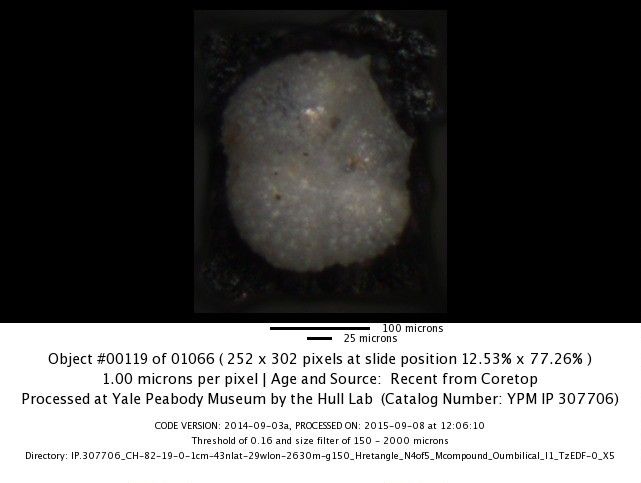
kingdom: Chromista
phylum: Foraminifera
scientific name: Foraminifera
